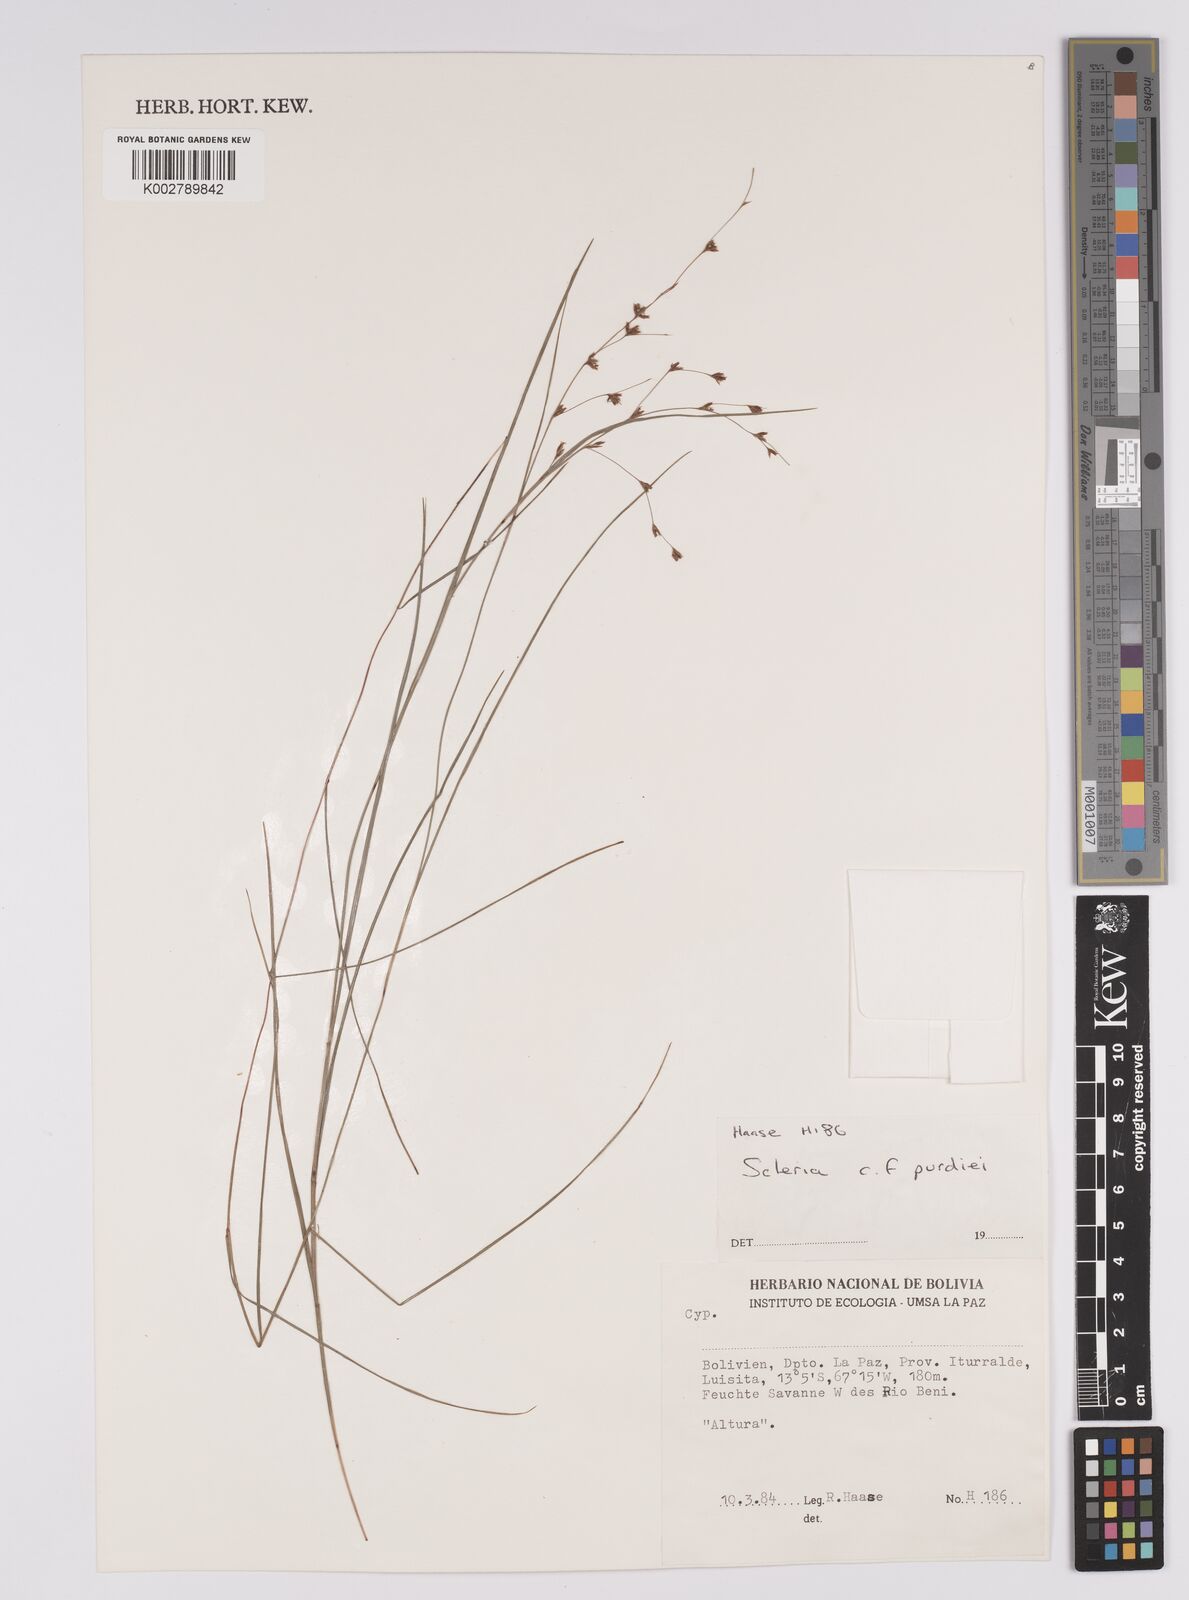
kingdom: Plantae
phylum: Tracheophyta
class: Liliopsida
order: Poales
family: Cyperaceae
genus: Scleria
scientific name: Scleria purdiei
